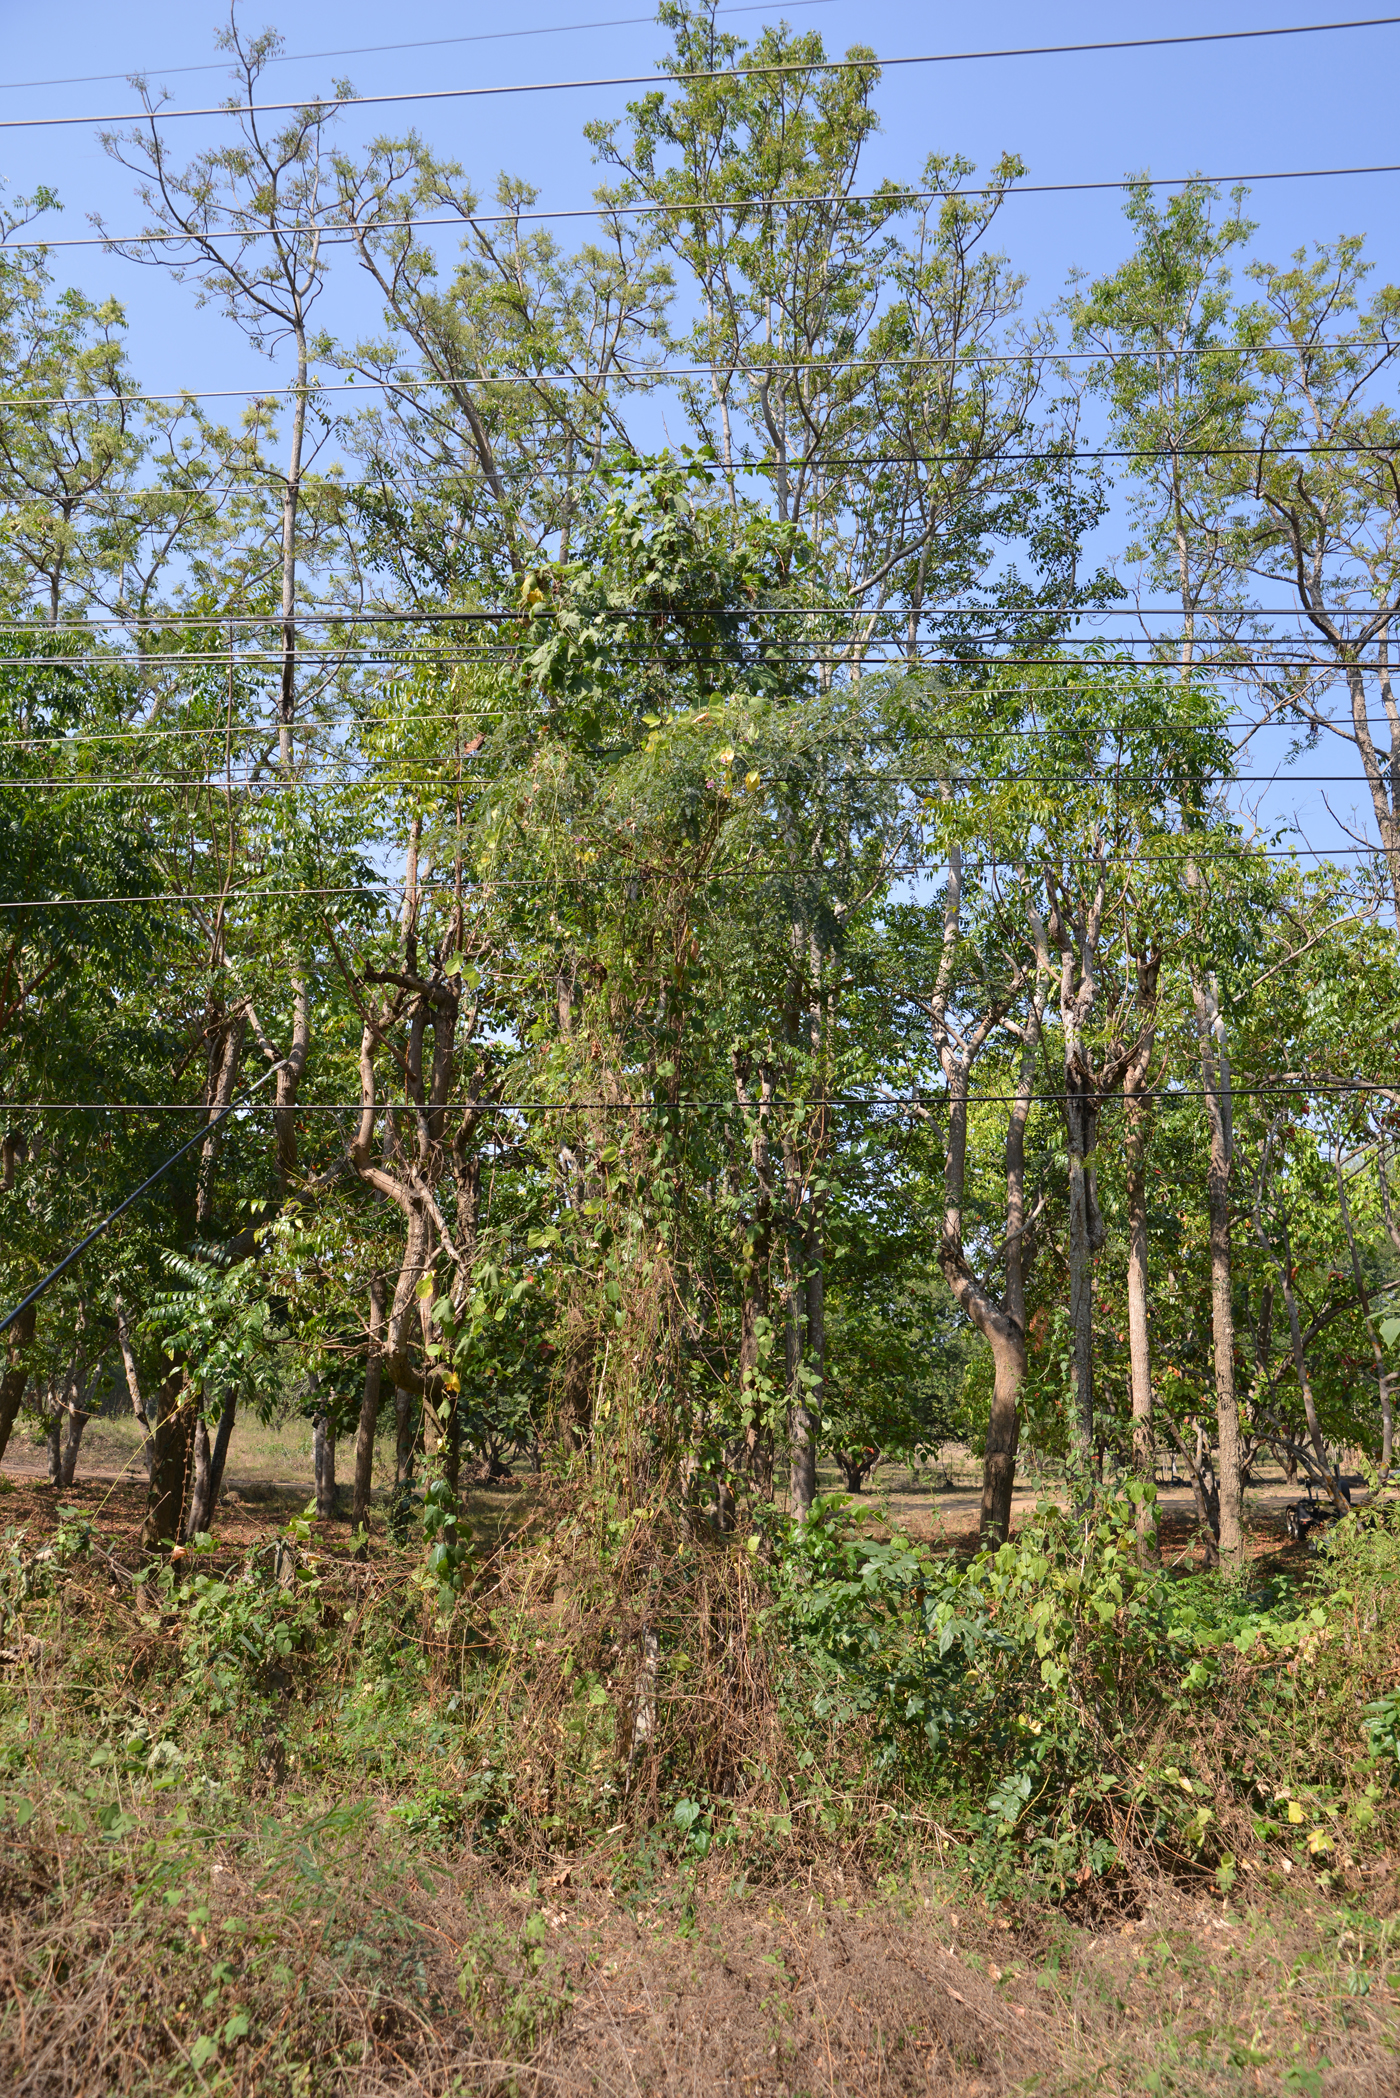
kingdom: Plantae
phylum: Tracheophyta
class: Magnoliopsida
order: Fabales
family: Fabaceae
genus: Dolichos
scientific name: Dolichos
